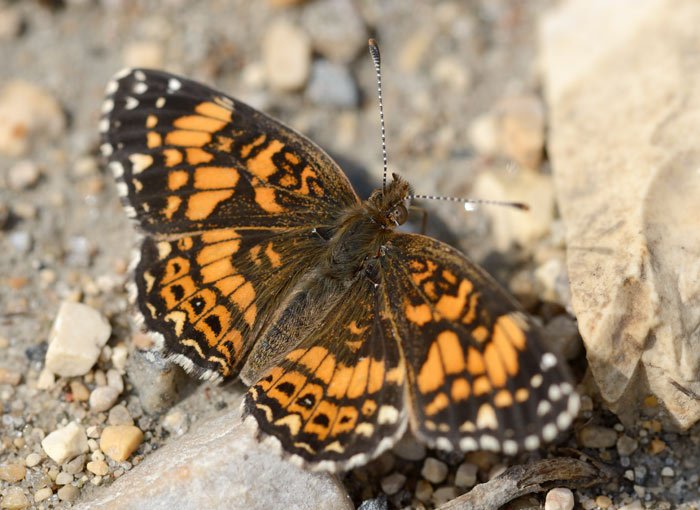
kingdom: Animalia
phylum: Arthropoda
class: Insecta
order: Lepidoptera
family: Nymphalidae
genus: Chlosyne
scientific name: Chlosyne gorgone
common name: Gorgone Checkerspot
